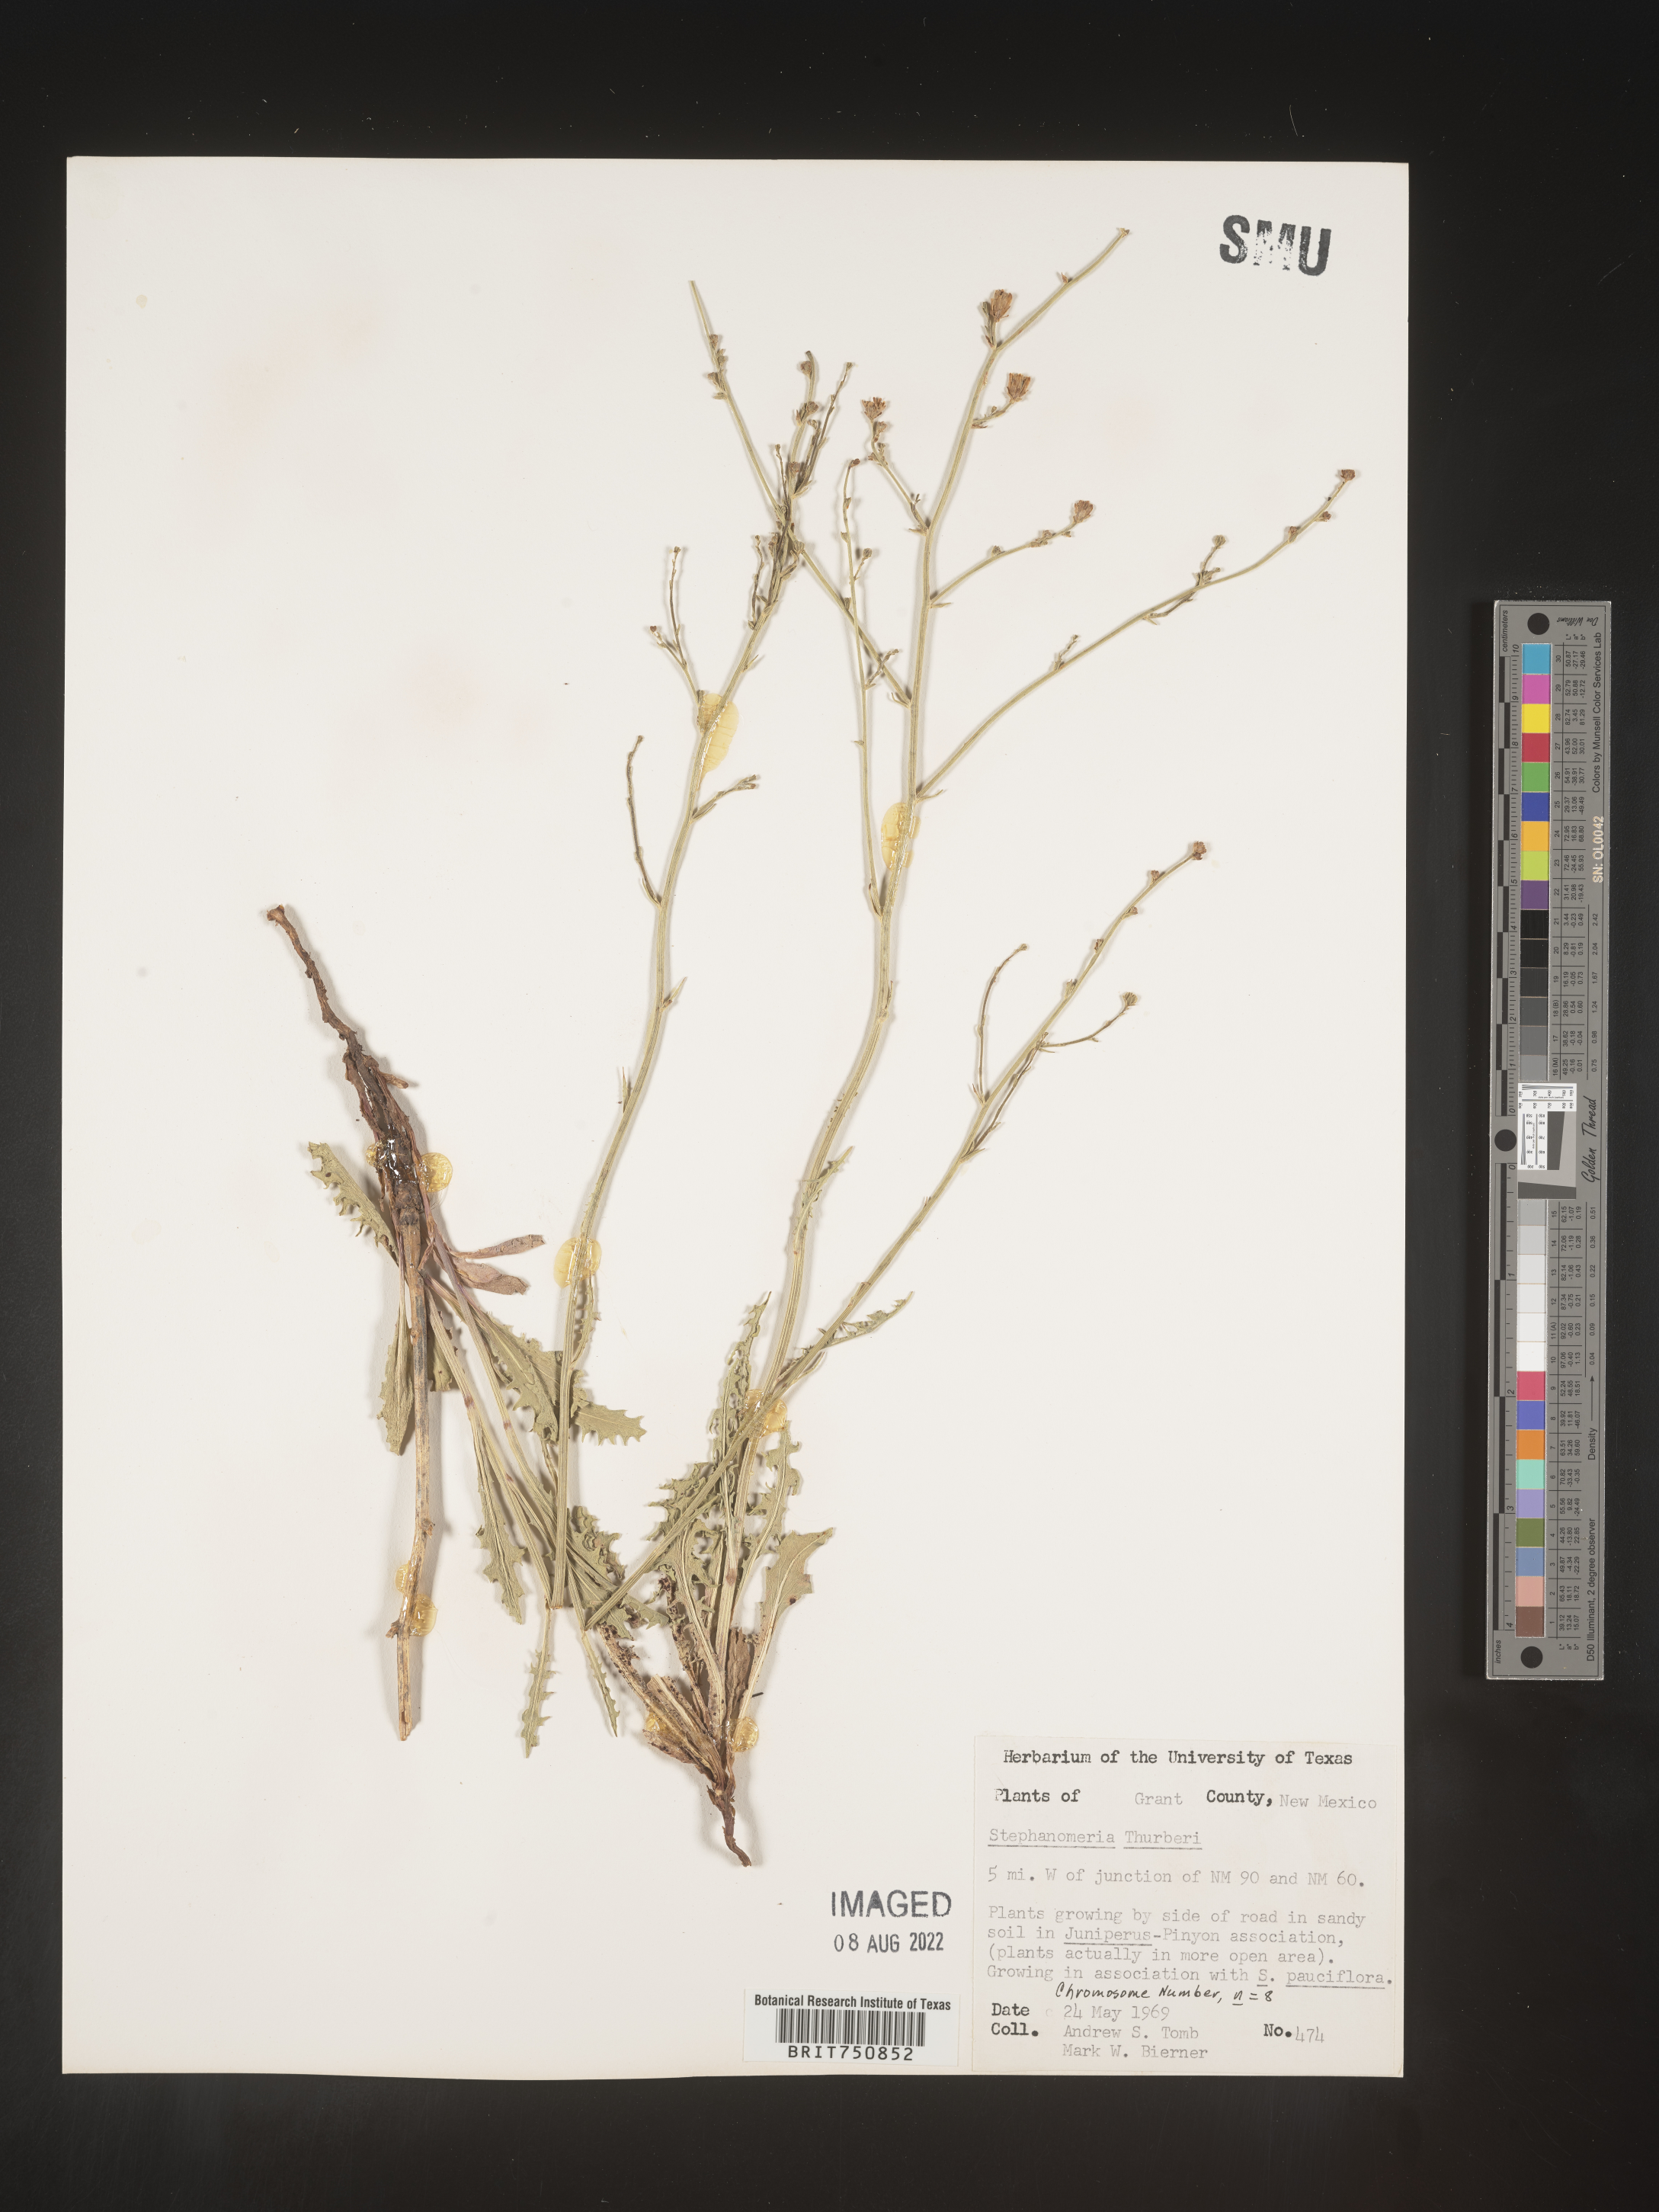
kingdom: Plantae
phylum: Tracheophyta
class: Magnoliopsida
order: Asterales
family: Asteraceae
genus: Stephanomeria
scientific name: Stephanomeria thurberi
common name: Thurber's wire-lettuce
